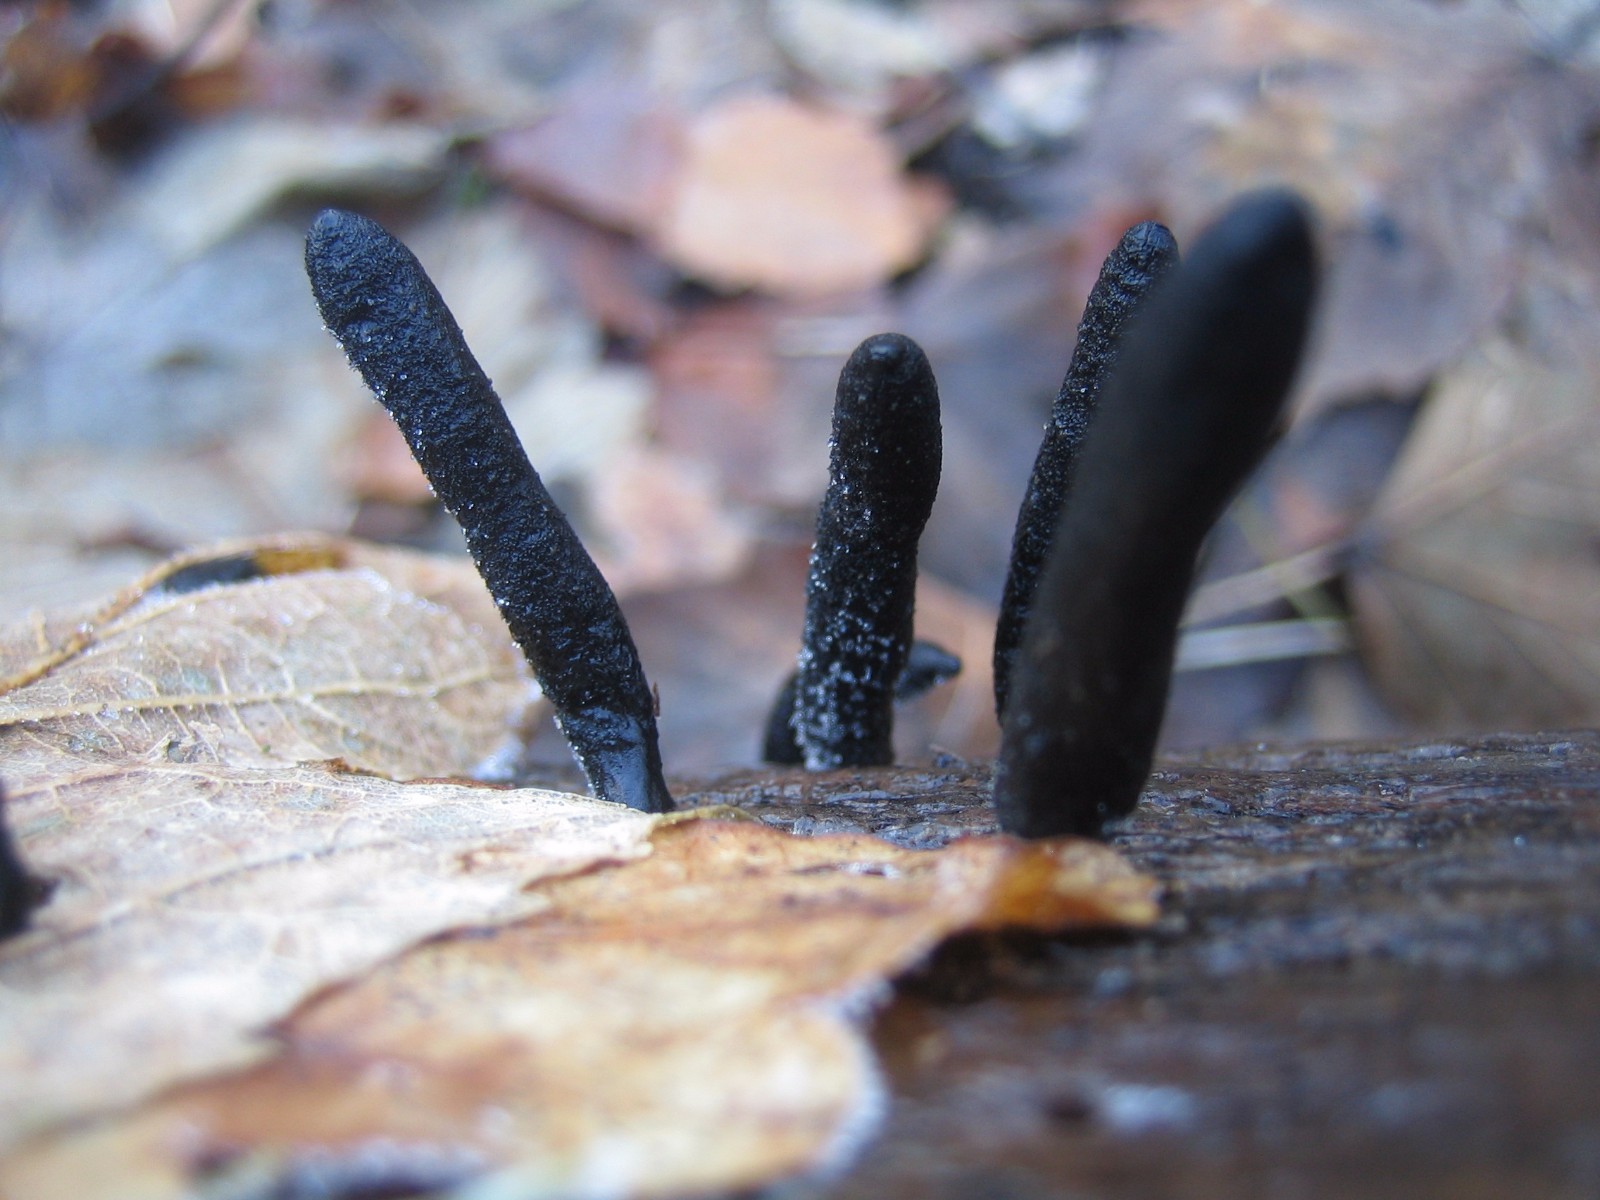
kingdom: Fungi
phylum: Ascomycota
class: Sordariomycetes
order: Xylariales
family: Xylariaceae
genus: Xylaria
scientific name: Xylaria longipes
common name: slank stødsvamp
